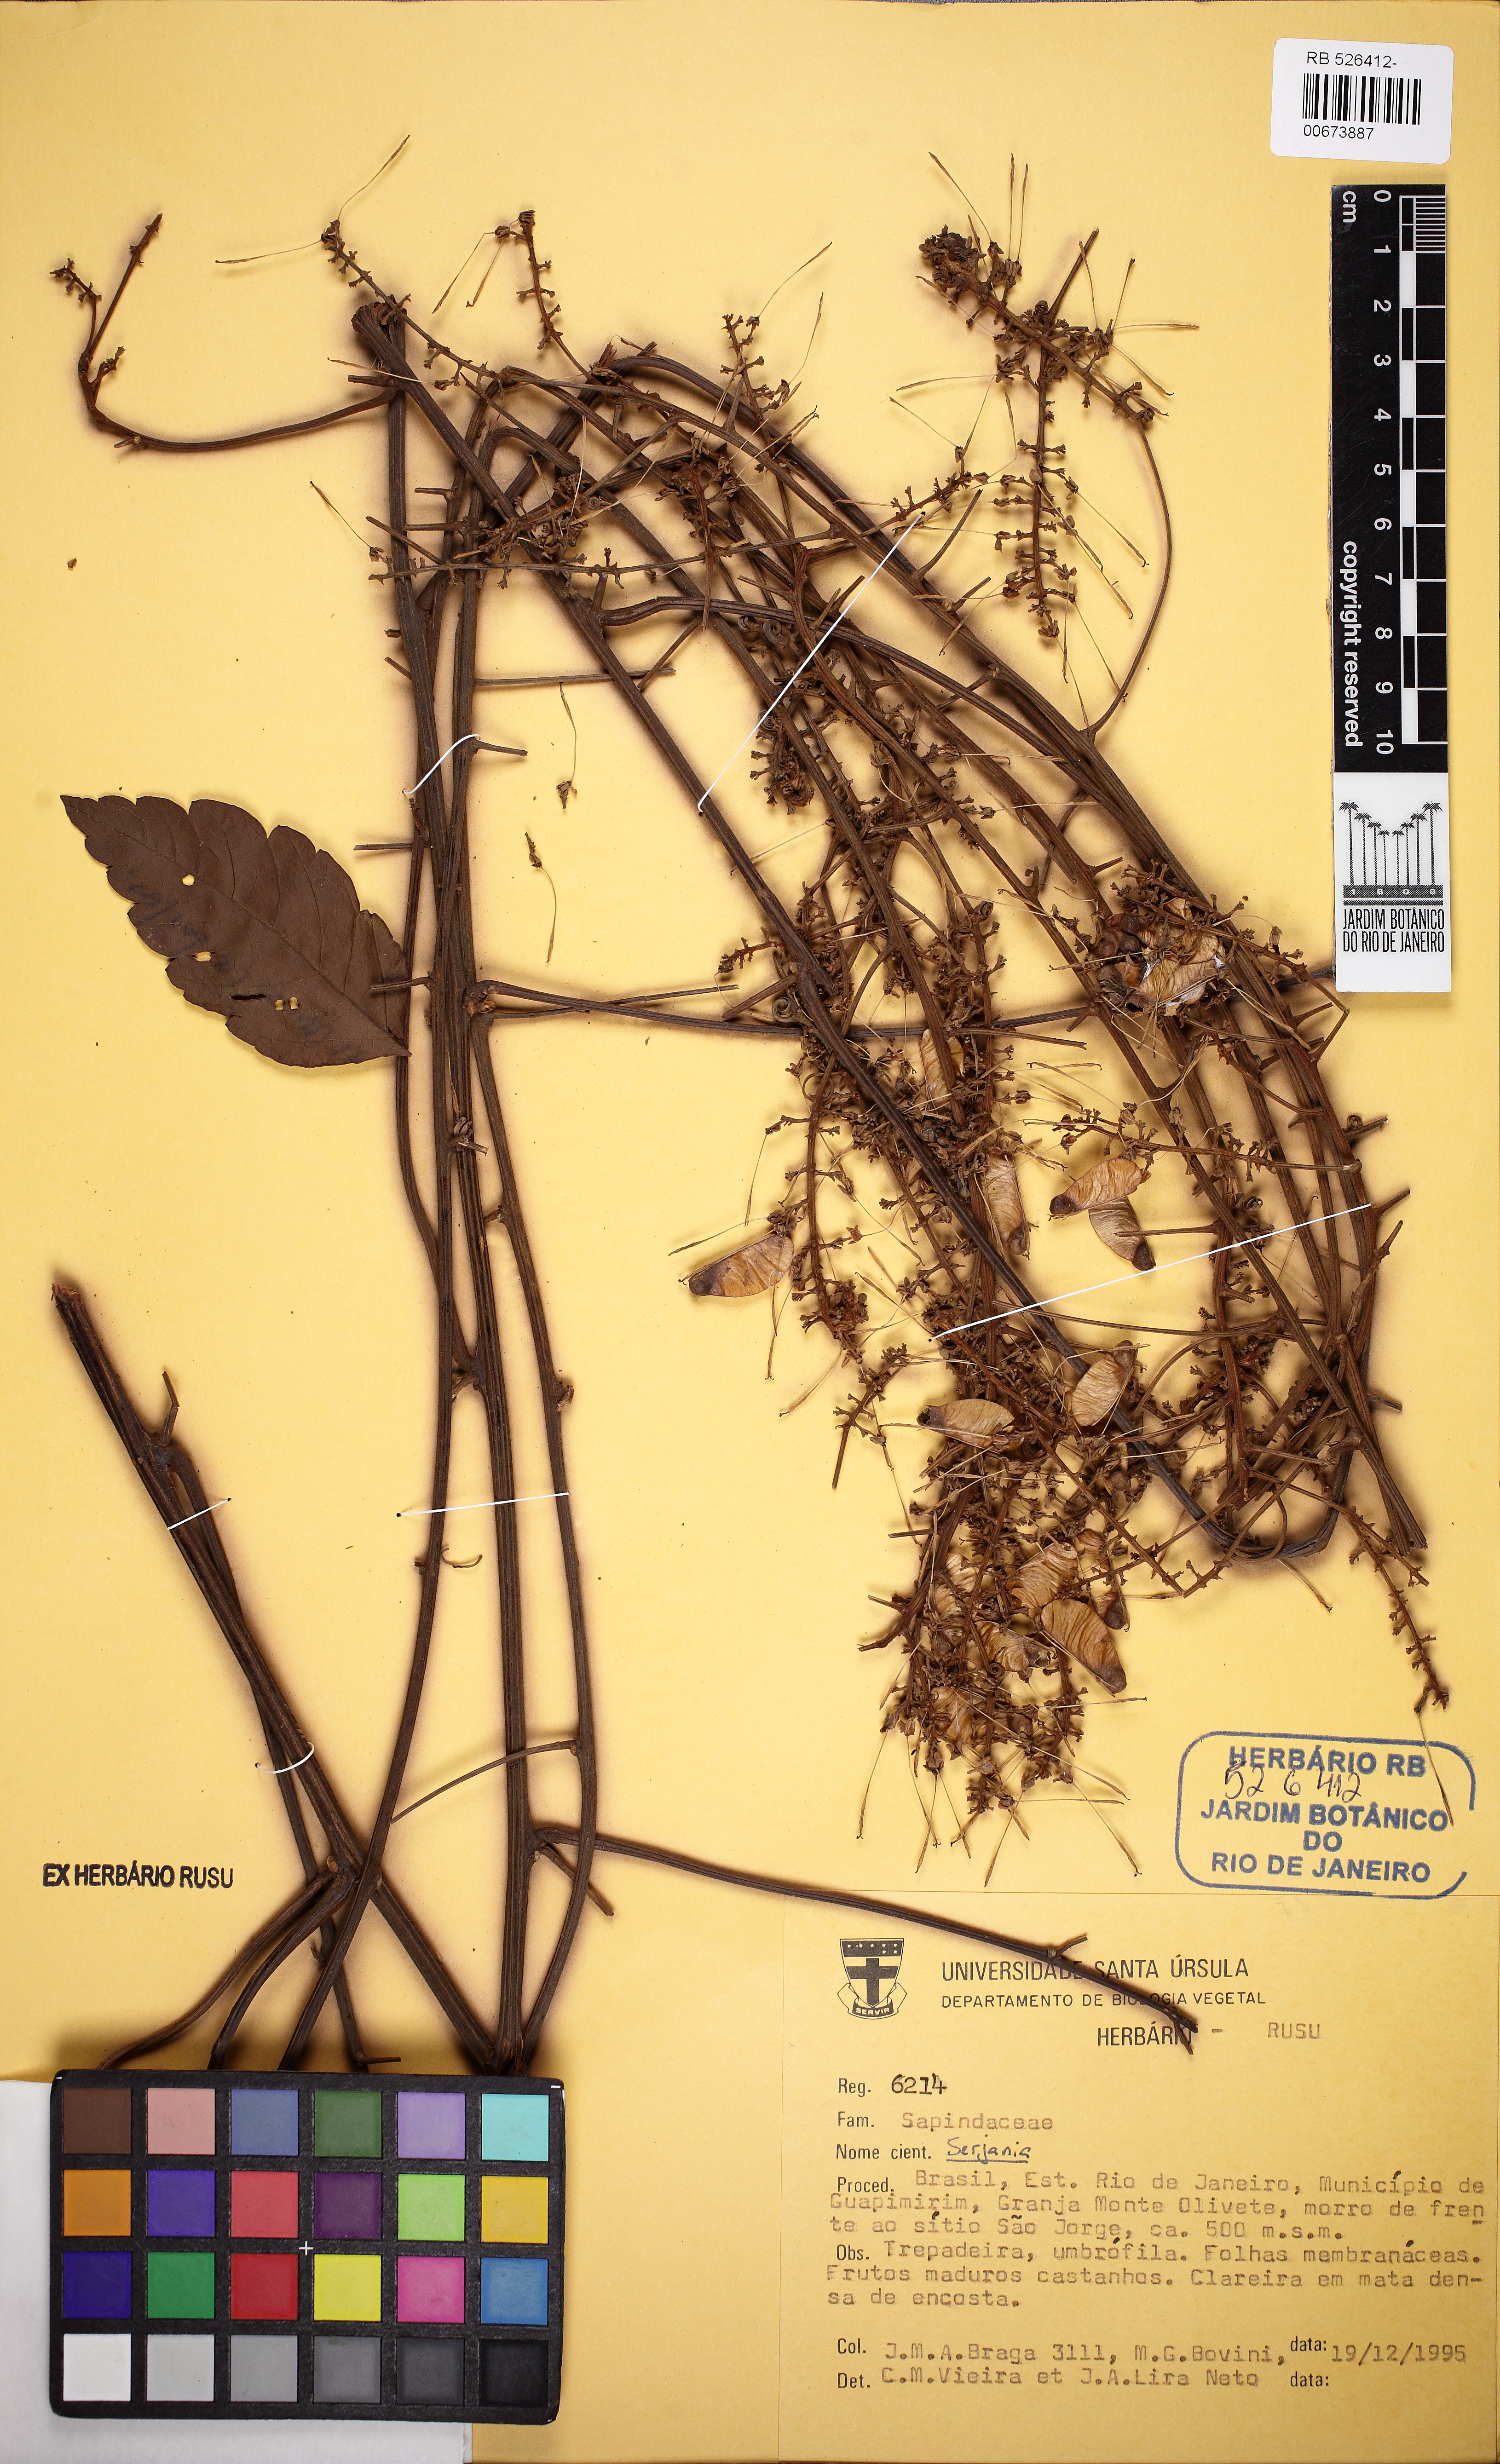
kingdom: Plantae
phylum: Tracheophyta
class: Magnoliopsida
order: Sapindales
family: Sapindaceae
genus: Serjania
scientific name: Serjania
